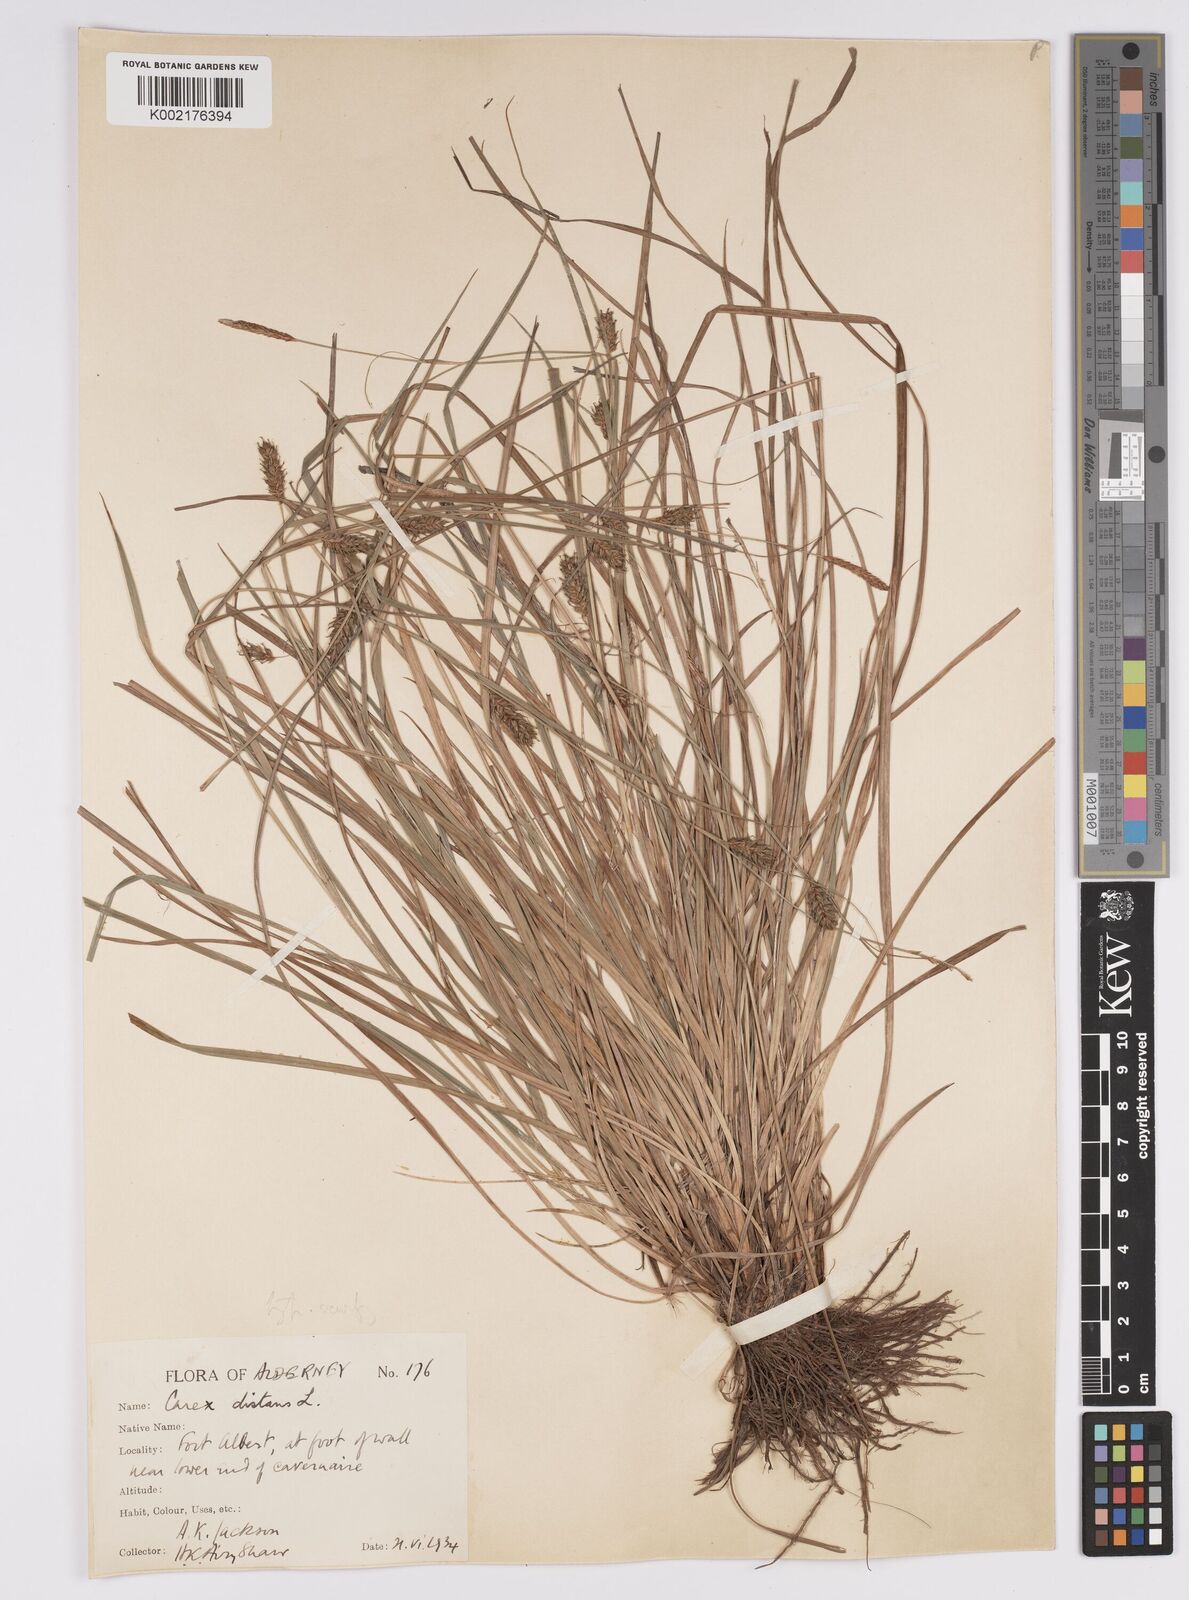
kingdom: Plantae
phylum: Tracheophyta
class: Liliopsida
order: Poales
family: Cyperaceae
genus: Carex
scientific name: Carex distans
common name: Distant sedge
